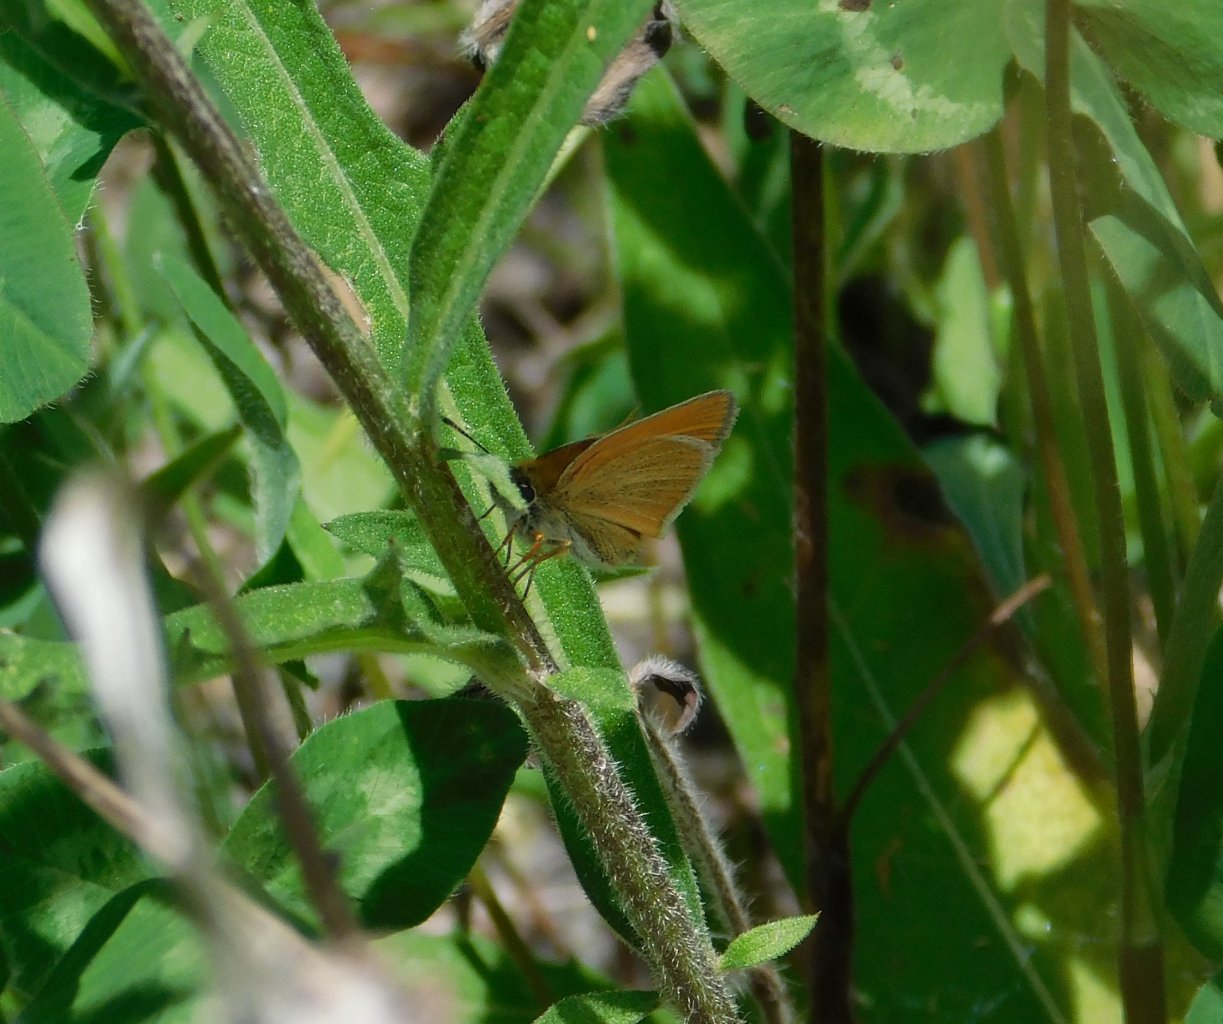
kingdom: Animalia
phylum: Arthropoda
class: Insecta
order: Lepidoptera
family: Hesperiidae
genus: Thymelicus
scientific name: Thymelicus lineola
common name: European Skipper
